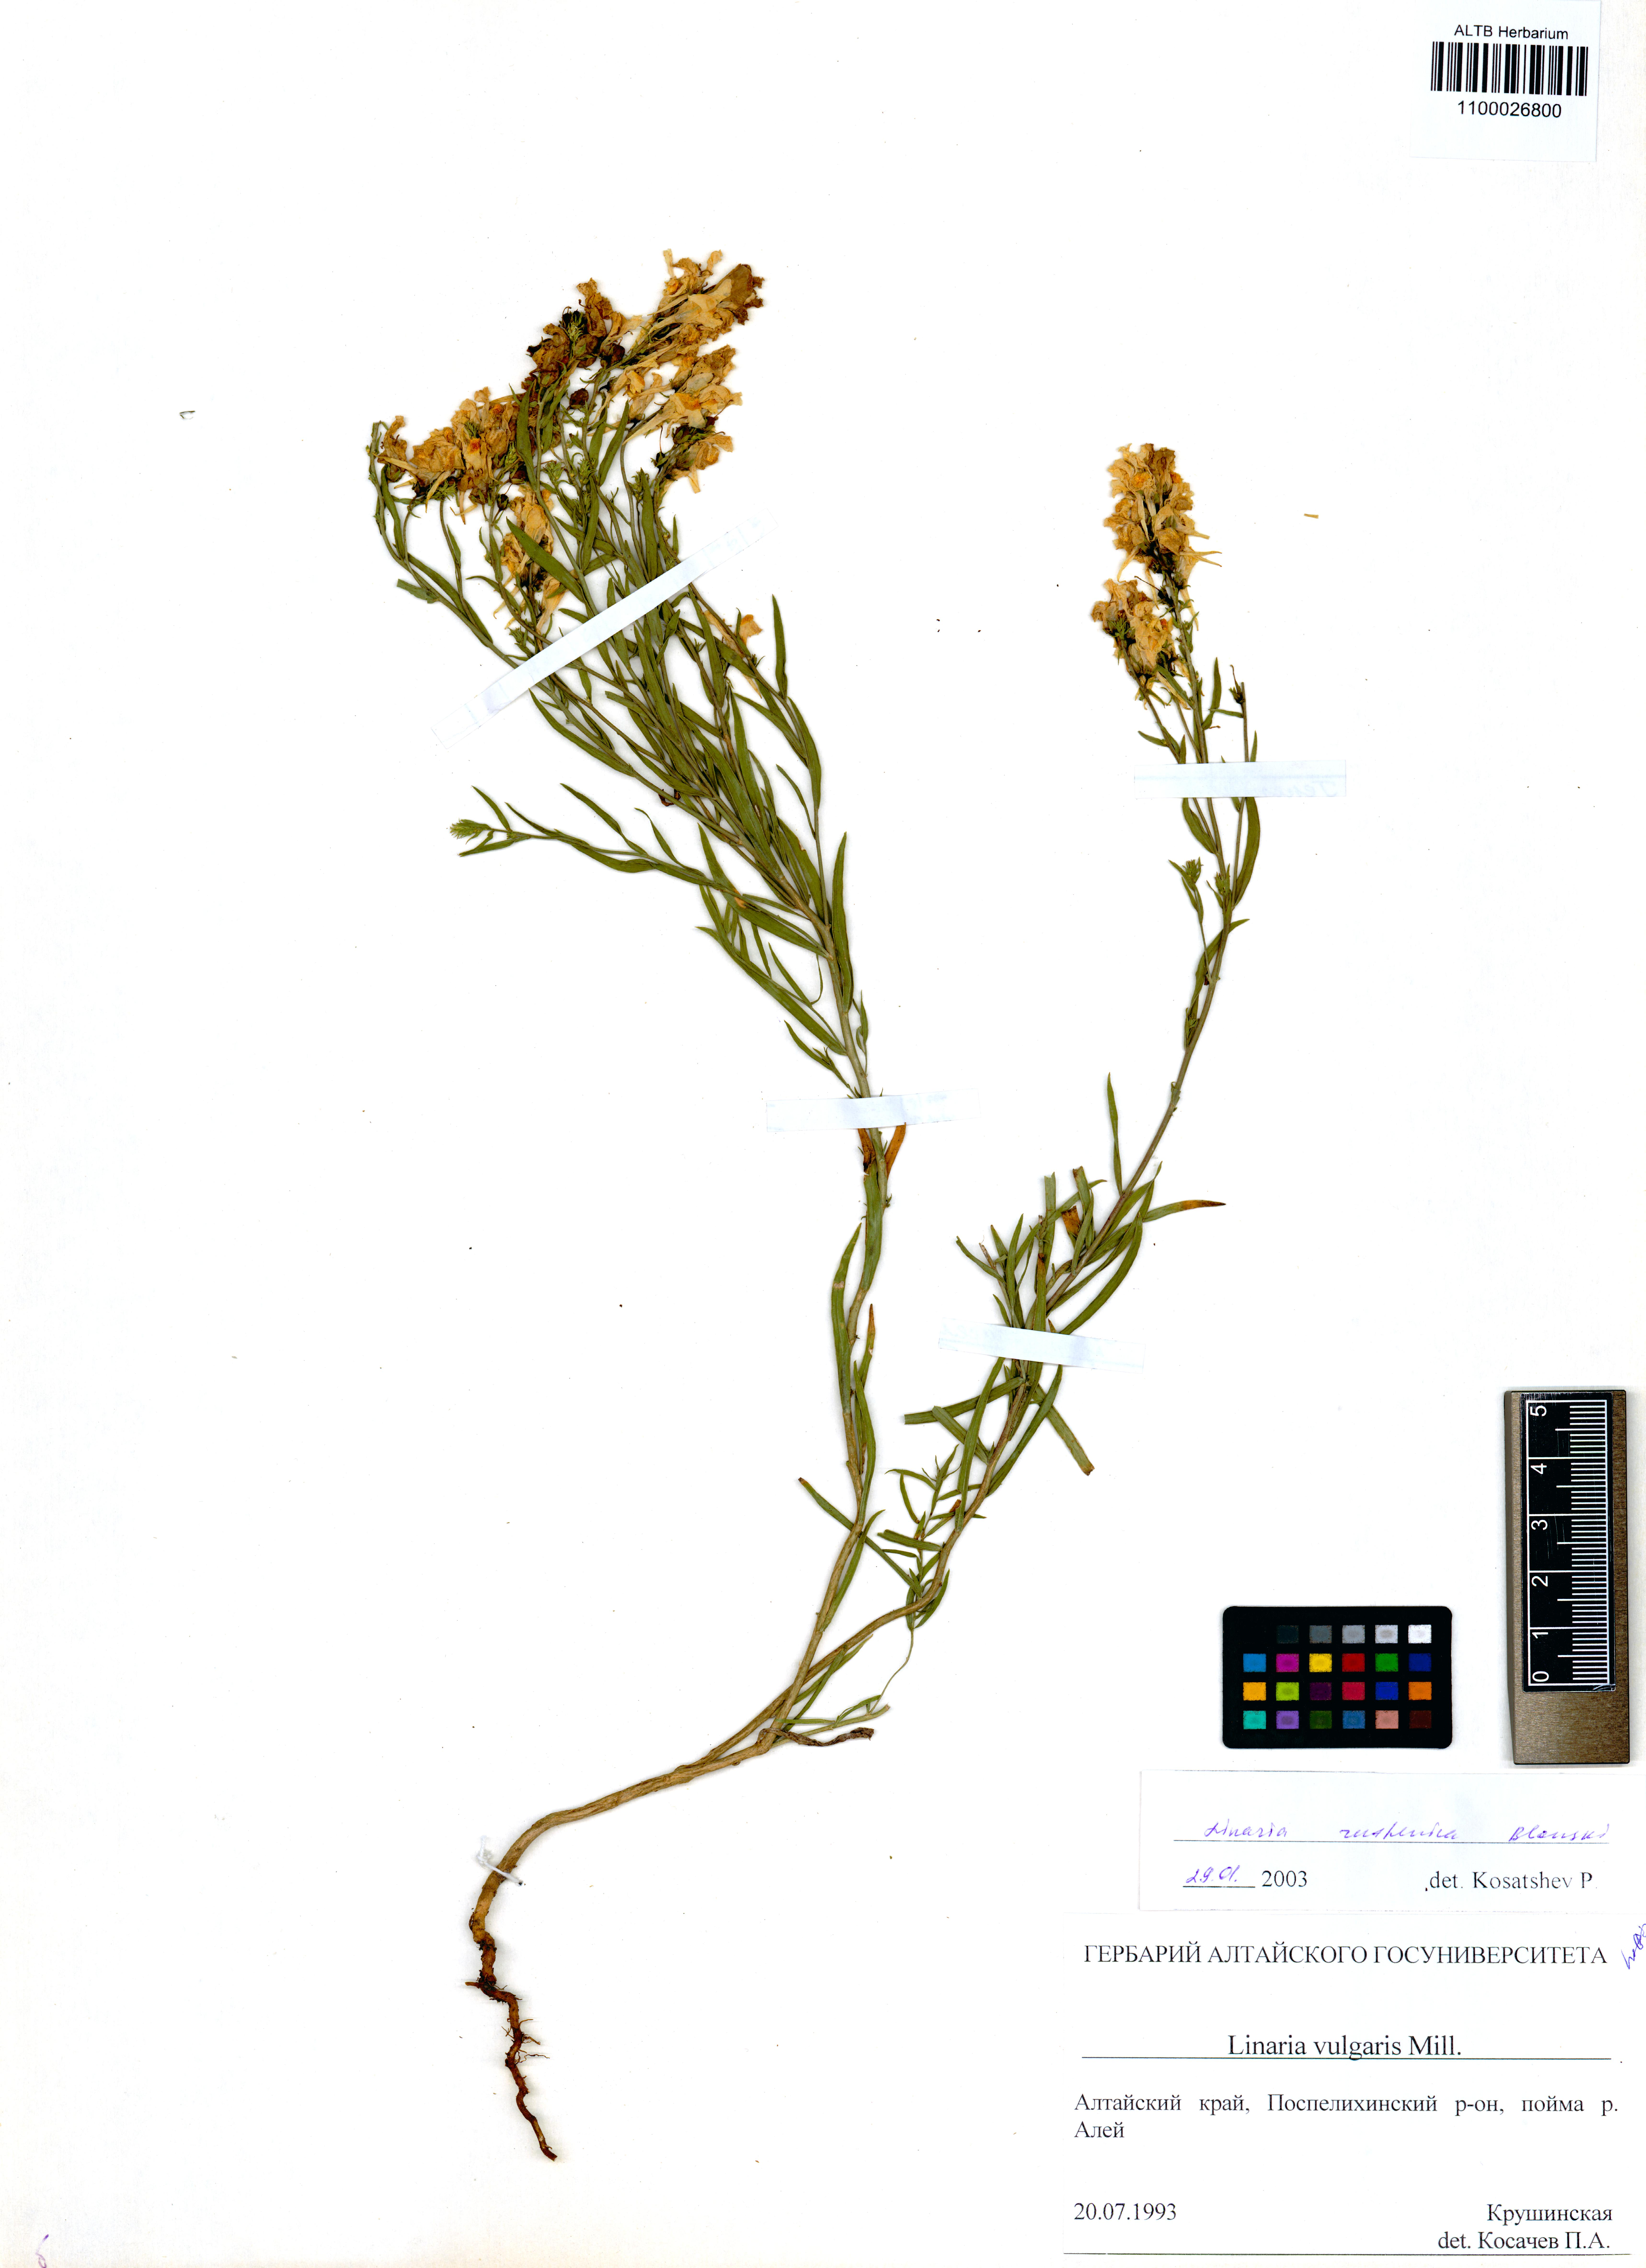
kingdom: Plantae
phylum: Tracheophyta
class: Magnoliopsida
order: Lamiales
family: Plantaginaceae
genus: Linaria
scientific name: Linaria biebersteinii
